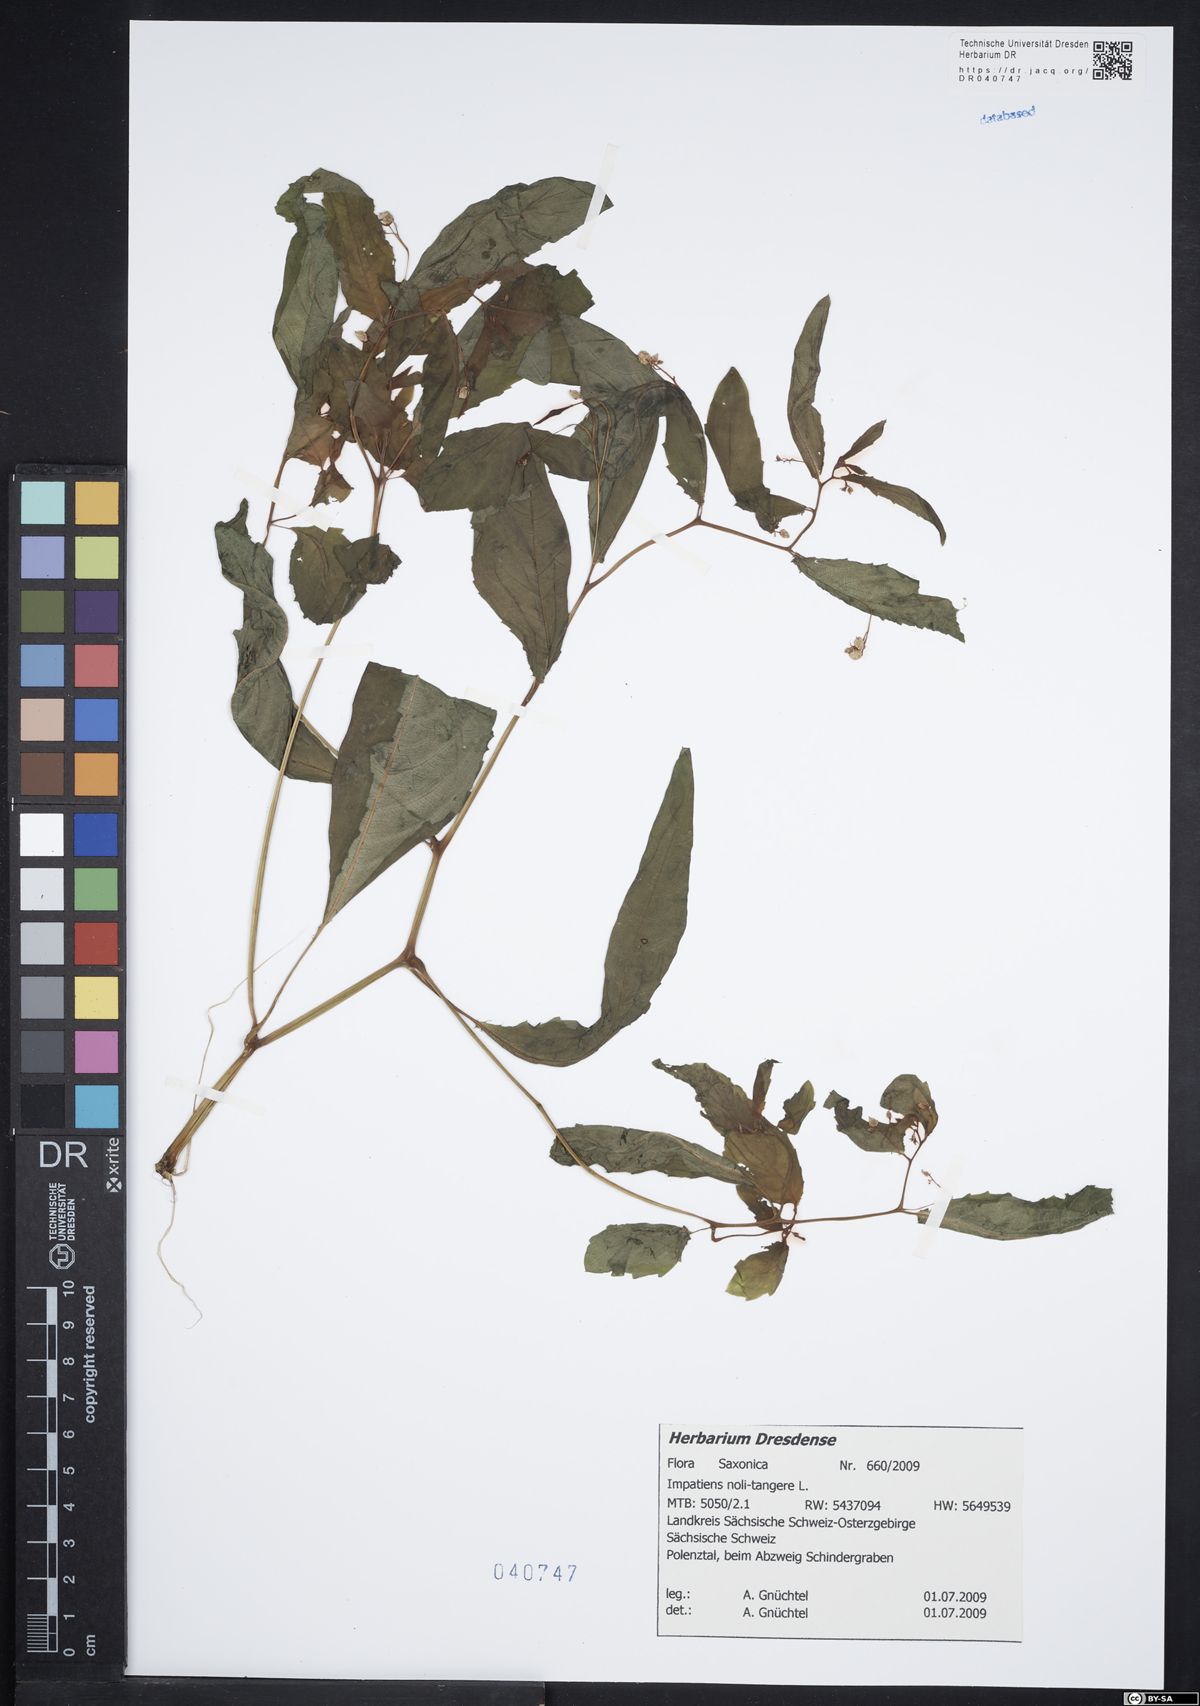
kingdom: Plantae
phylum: Tracheophyta
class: Magnoliopsida
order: Ericales
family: Balsaminaceae
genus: Impatiens
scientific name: Impatiens noli-tangere
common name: Touch-me-not balsam
